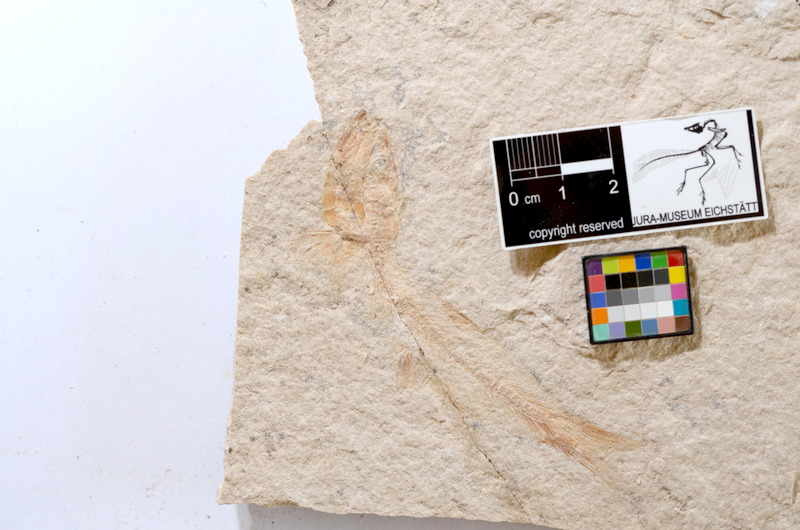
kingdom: Animalia
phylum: Chordata
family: Ascalaboidae
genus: Tharsis
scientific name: Tharsis dubius
